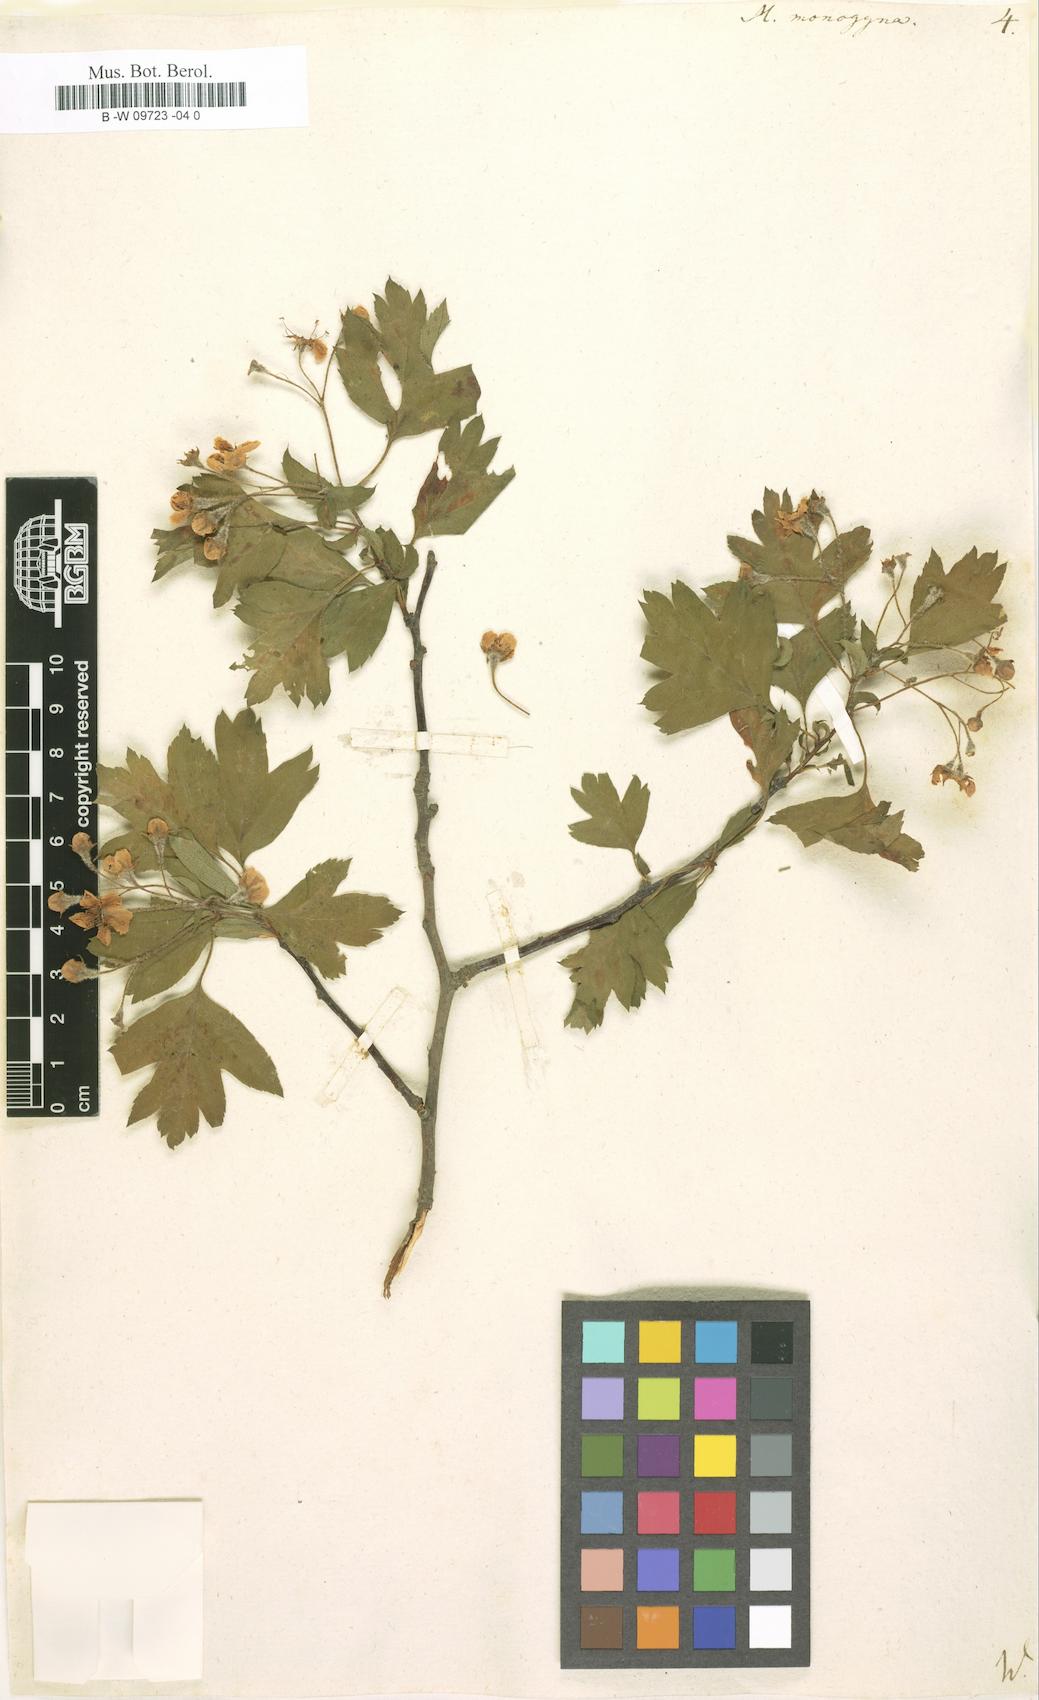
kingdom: Plantae
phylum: Tracheophyta
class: Magnoliopsida
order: Rosales
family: Rosaceae
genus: Crataegus
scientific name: Crataegus monogyna
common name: Hawthorn
